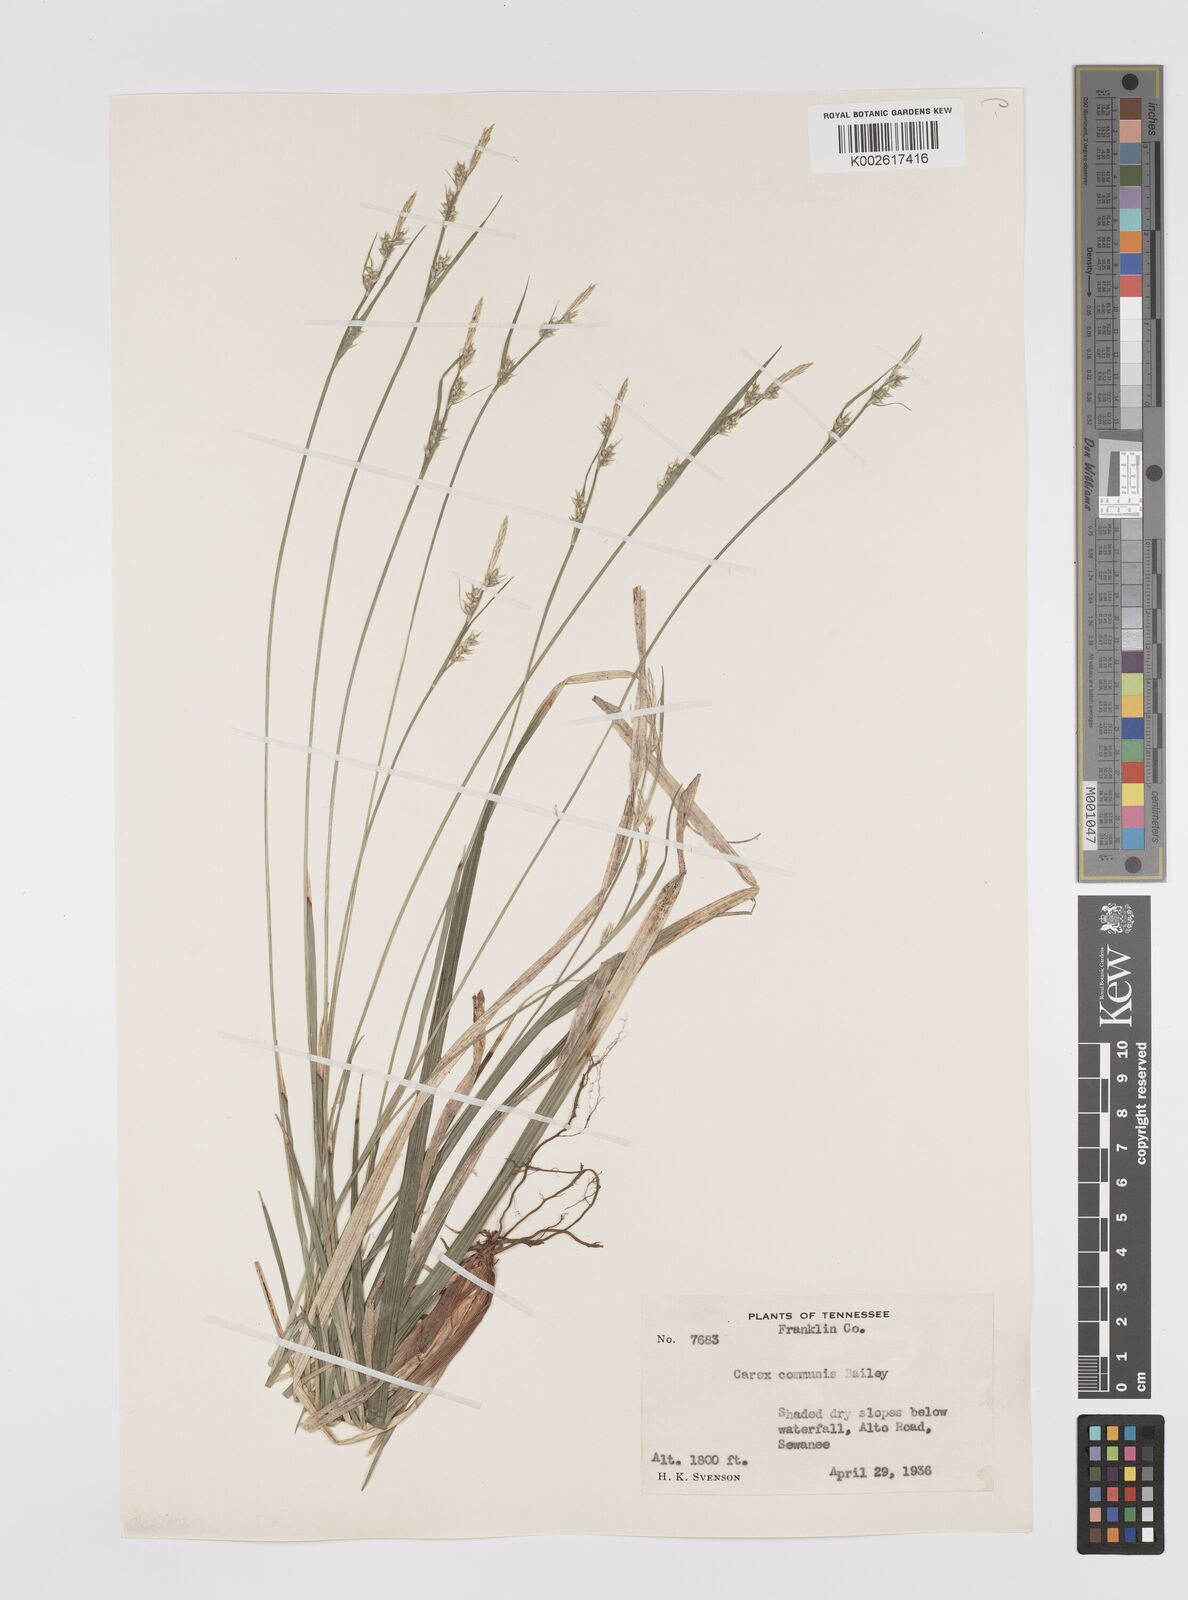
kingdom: Plantae
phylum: Tracheophyta
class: Liliopsida
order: Poales
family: Cyperaceae
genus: Carex
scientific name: Carex communis
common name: Colonial oak sedge
